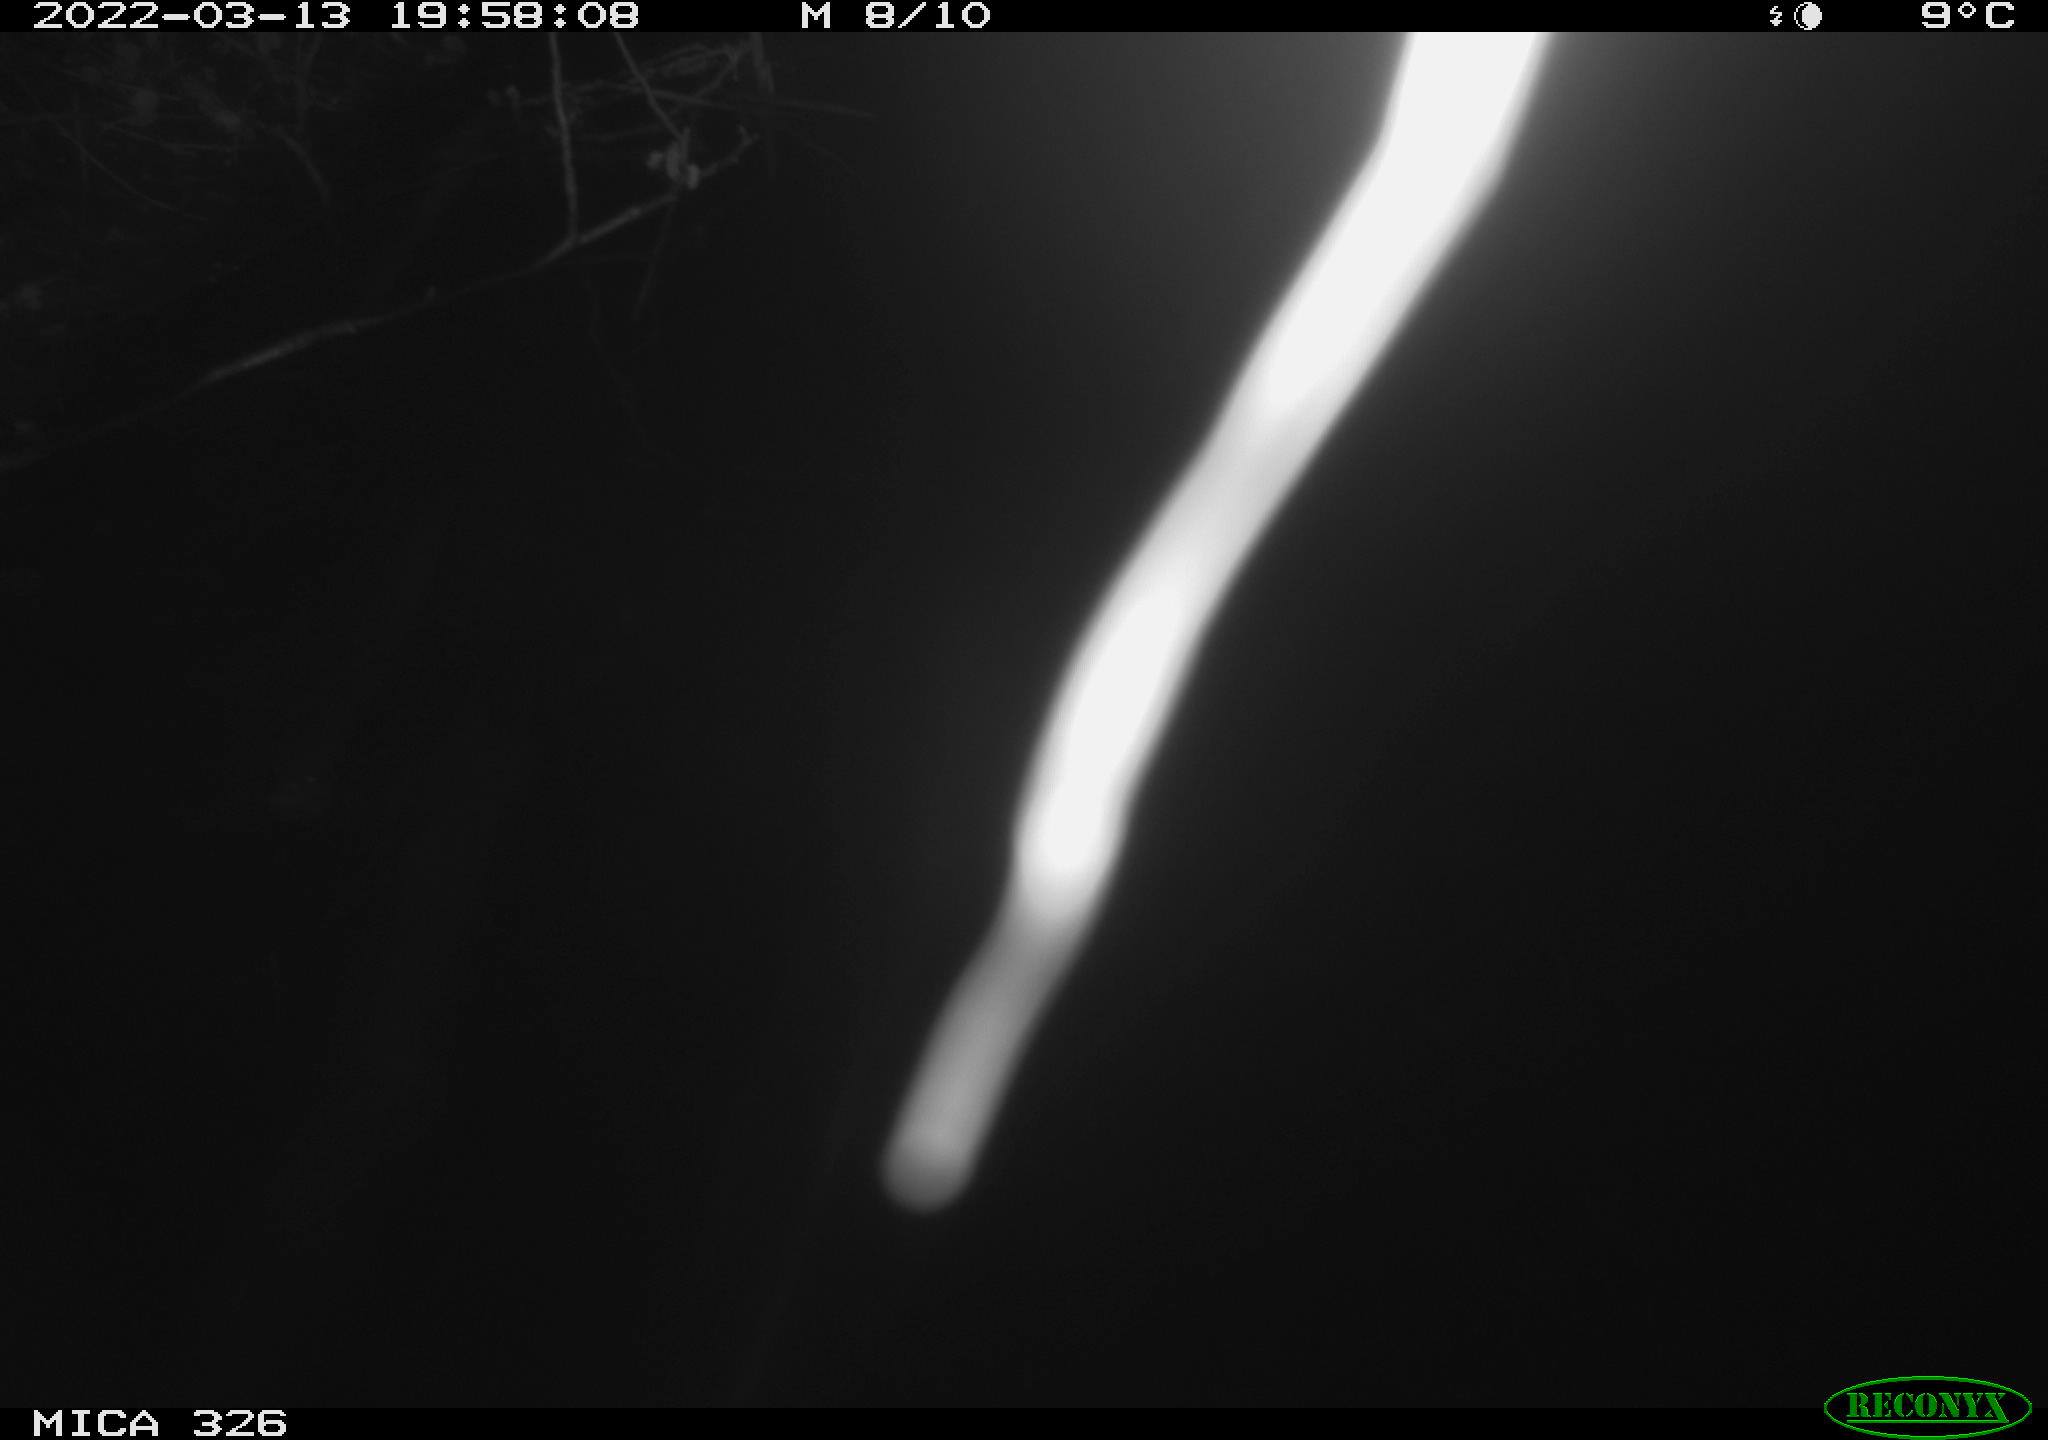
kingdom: Animalia
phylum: Chordata
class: Mammalia
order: Rodentia
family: Muridae
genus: Rattus
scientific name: Rattus norvegicus
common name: Brown rat
